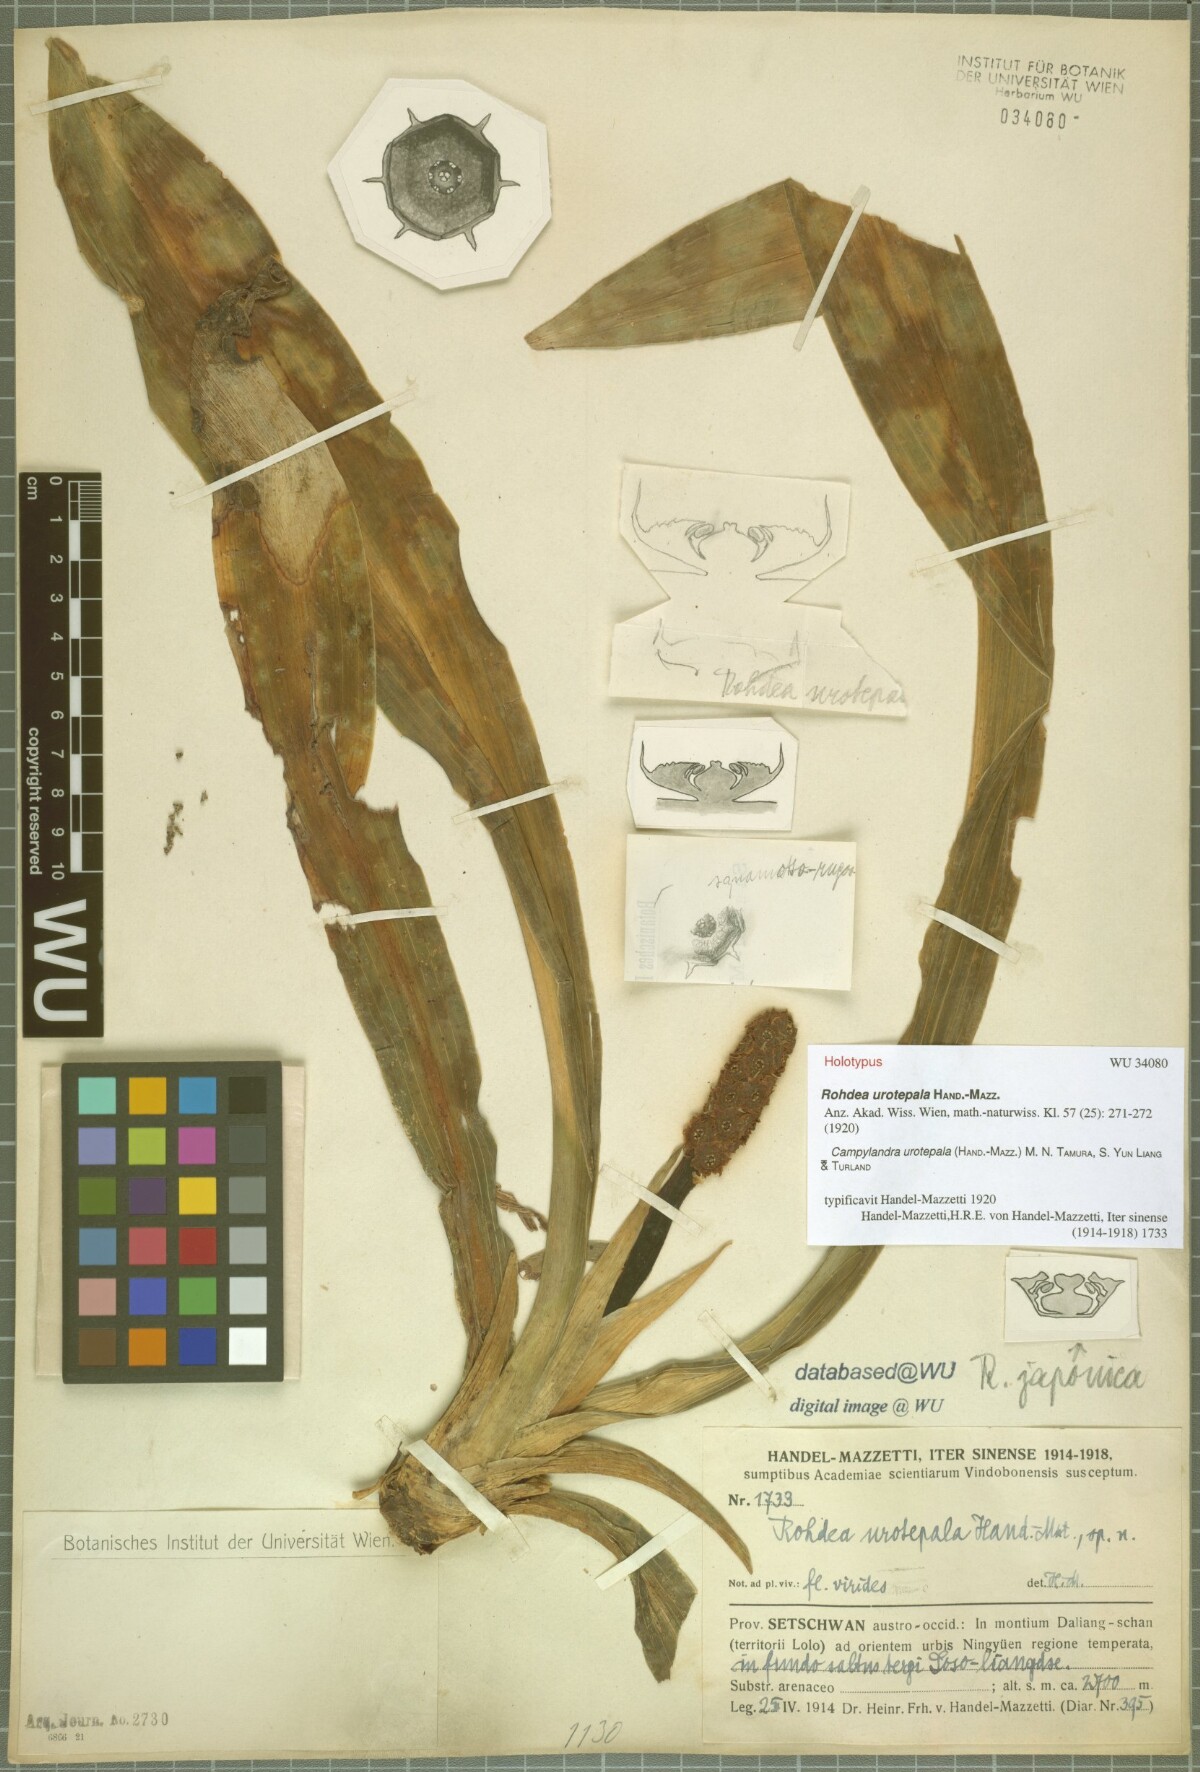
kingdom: Plantae
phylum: Tracheophyta
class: Liliopsida
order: Asparagales
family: Asparagaceae
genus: Rohdea
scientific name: Rohdea urotepala
